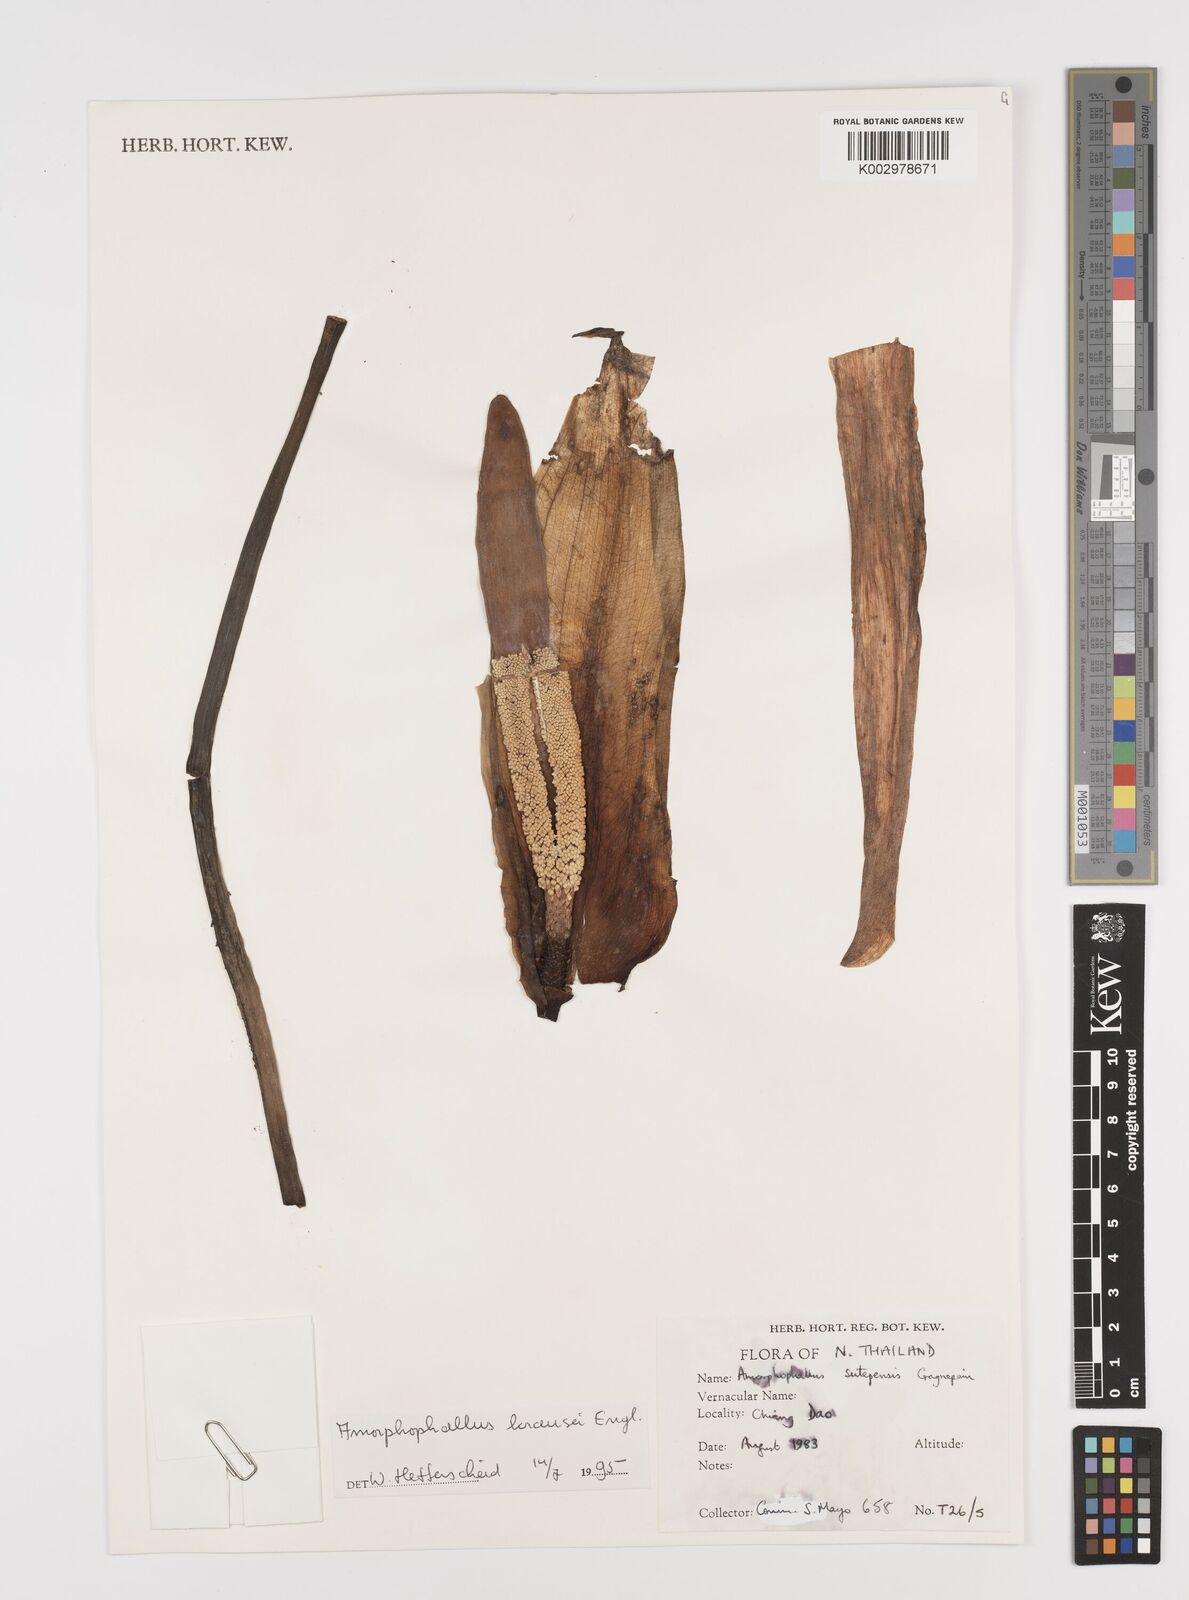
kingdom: Plantae
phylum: Tracheophyta
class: Liliopsida
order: Alismatales
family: Araceae
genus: Amorphophallus
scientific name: Amorphophallus krausei
